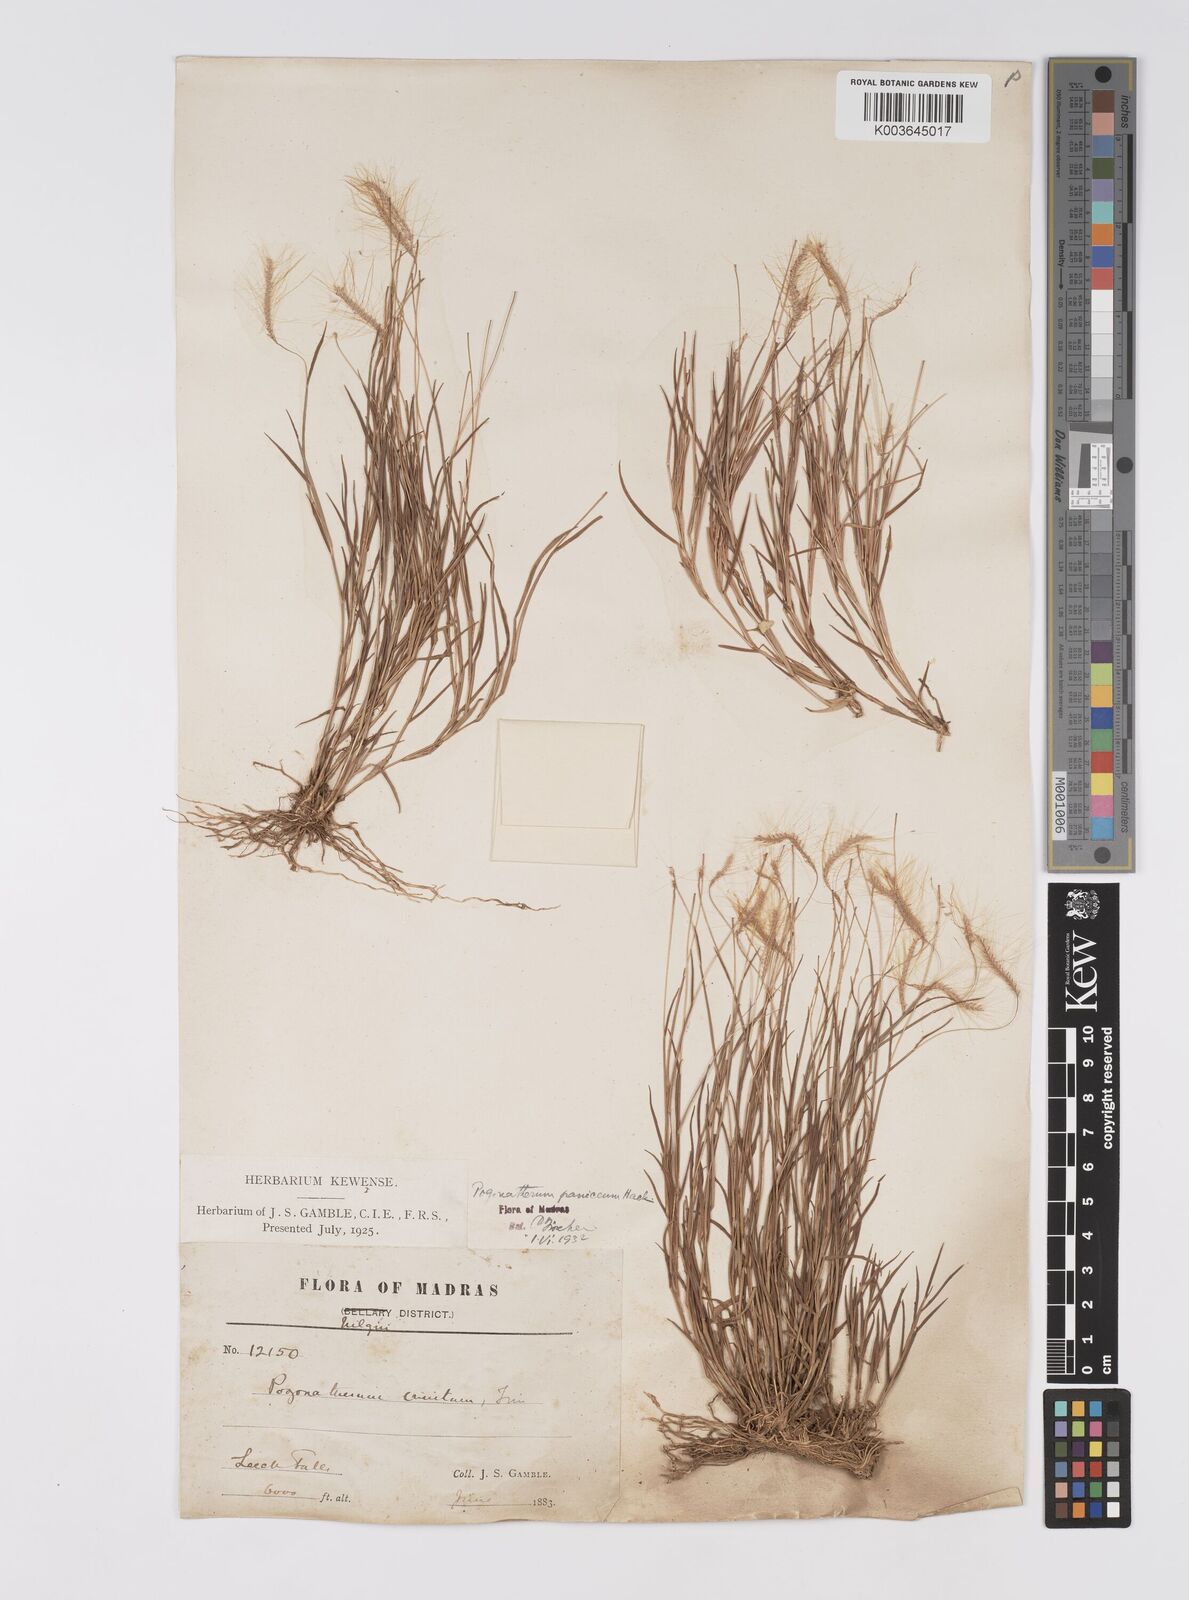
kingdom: Plantae
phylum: Tracheophyta
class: Liliopsida
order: Poales
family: Poaceae
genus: Pogonatherum
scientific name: Pogonatherum crinitum
